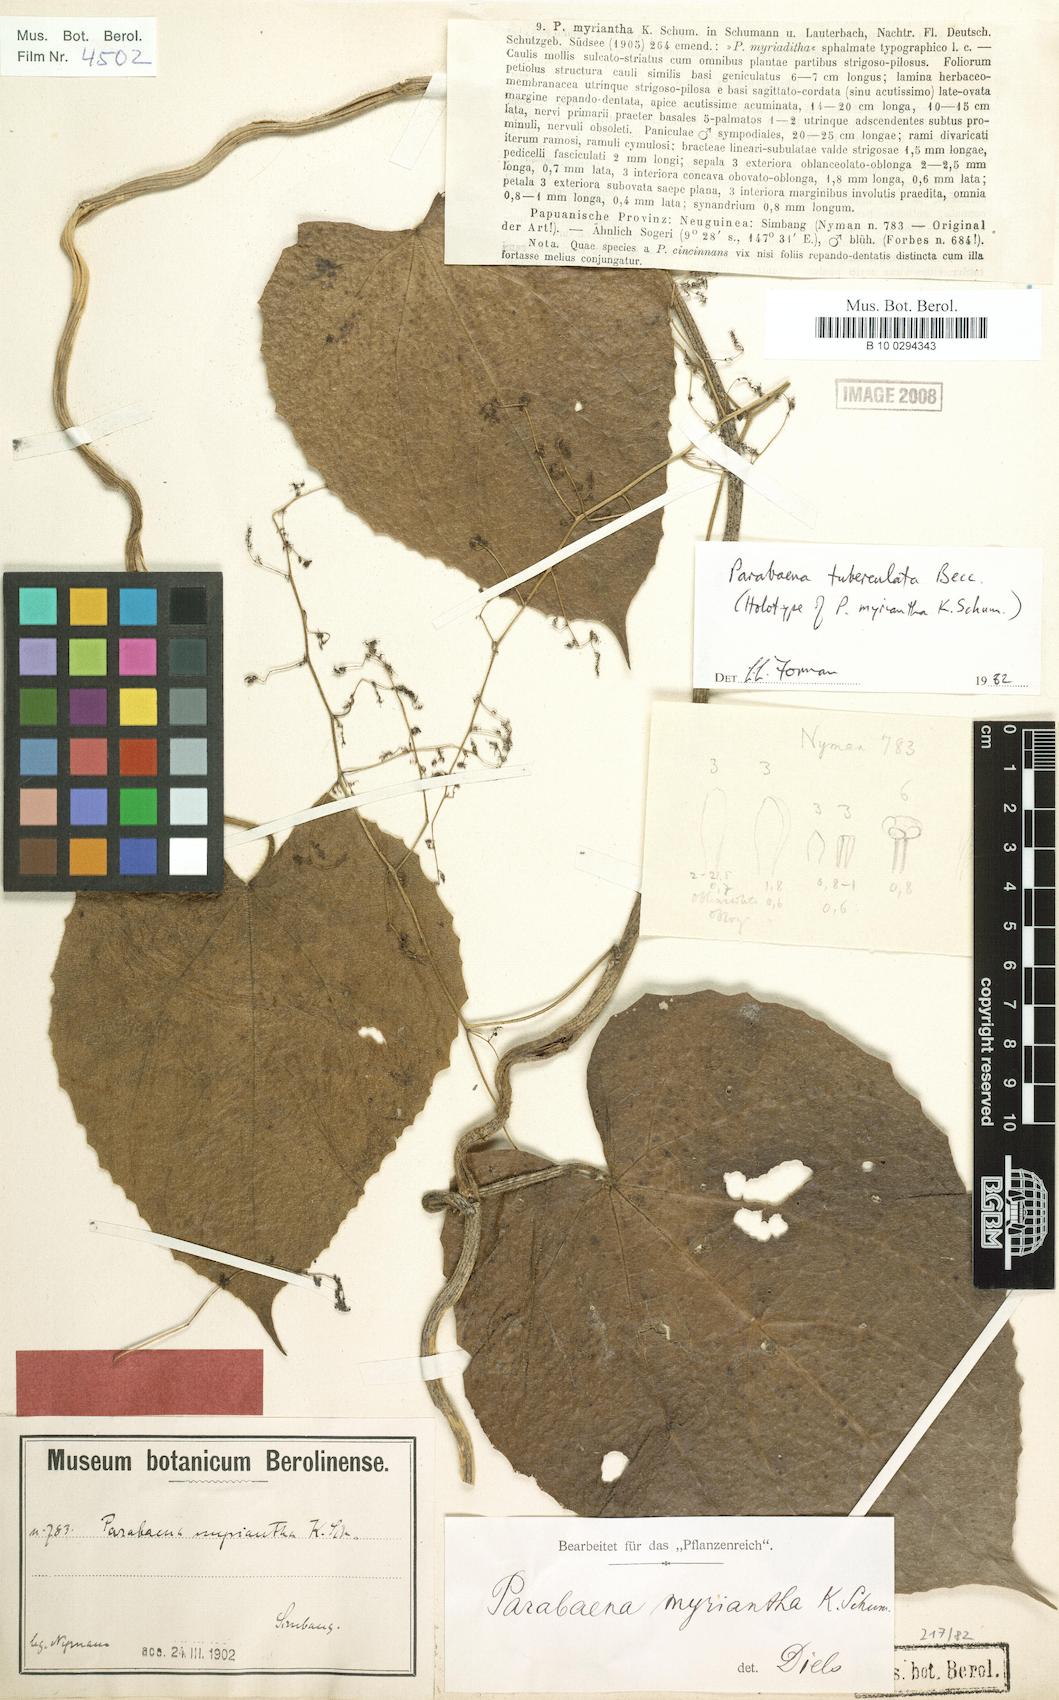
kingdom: Plantae
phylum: Tracheophyta
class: Magnoliopsida
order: Ranunculales
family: Menispermaceae
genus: Parabaena
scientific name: Parabaena tuberculata
